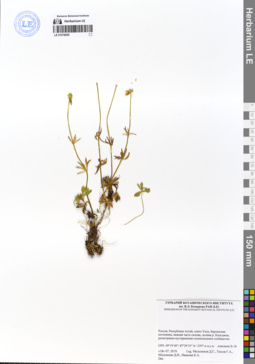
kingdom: Plantae
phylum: Tracheophyta
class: Magnoliopsida
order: Ranunculales
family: Ranunculaceae
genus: Ranunculus
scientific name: Ranunculus lasiocarpus
